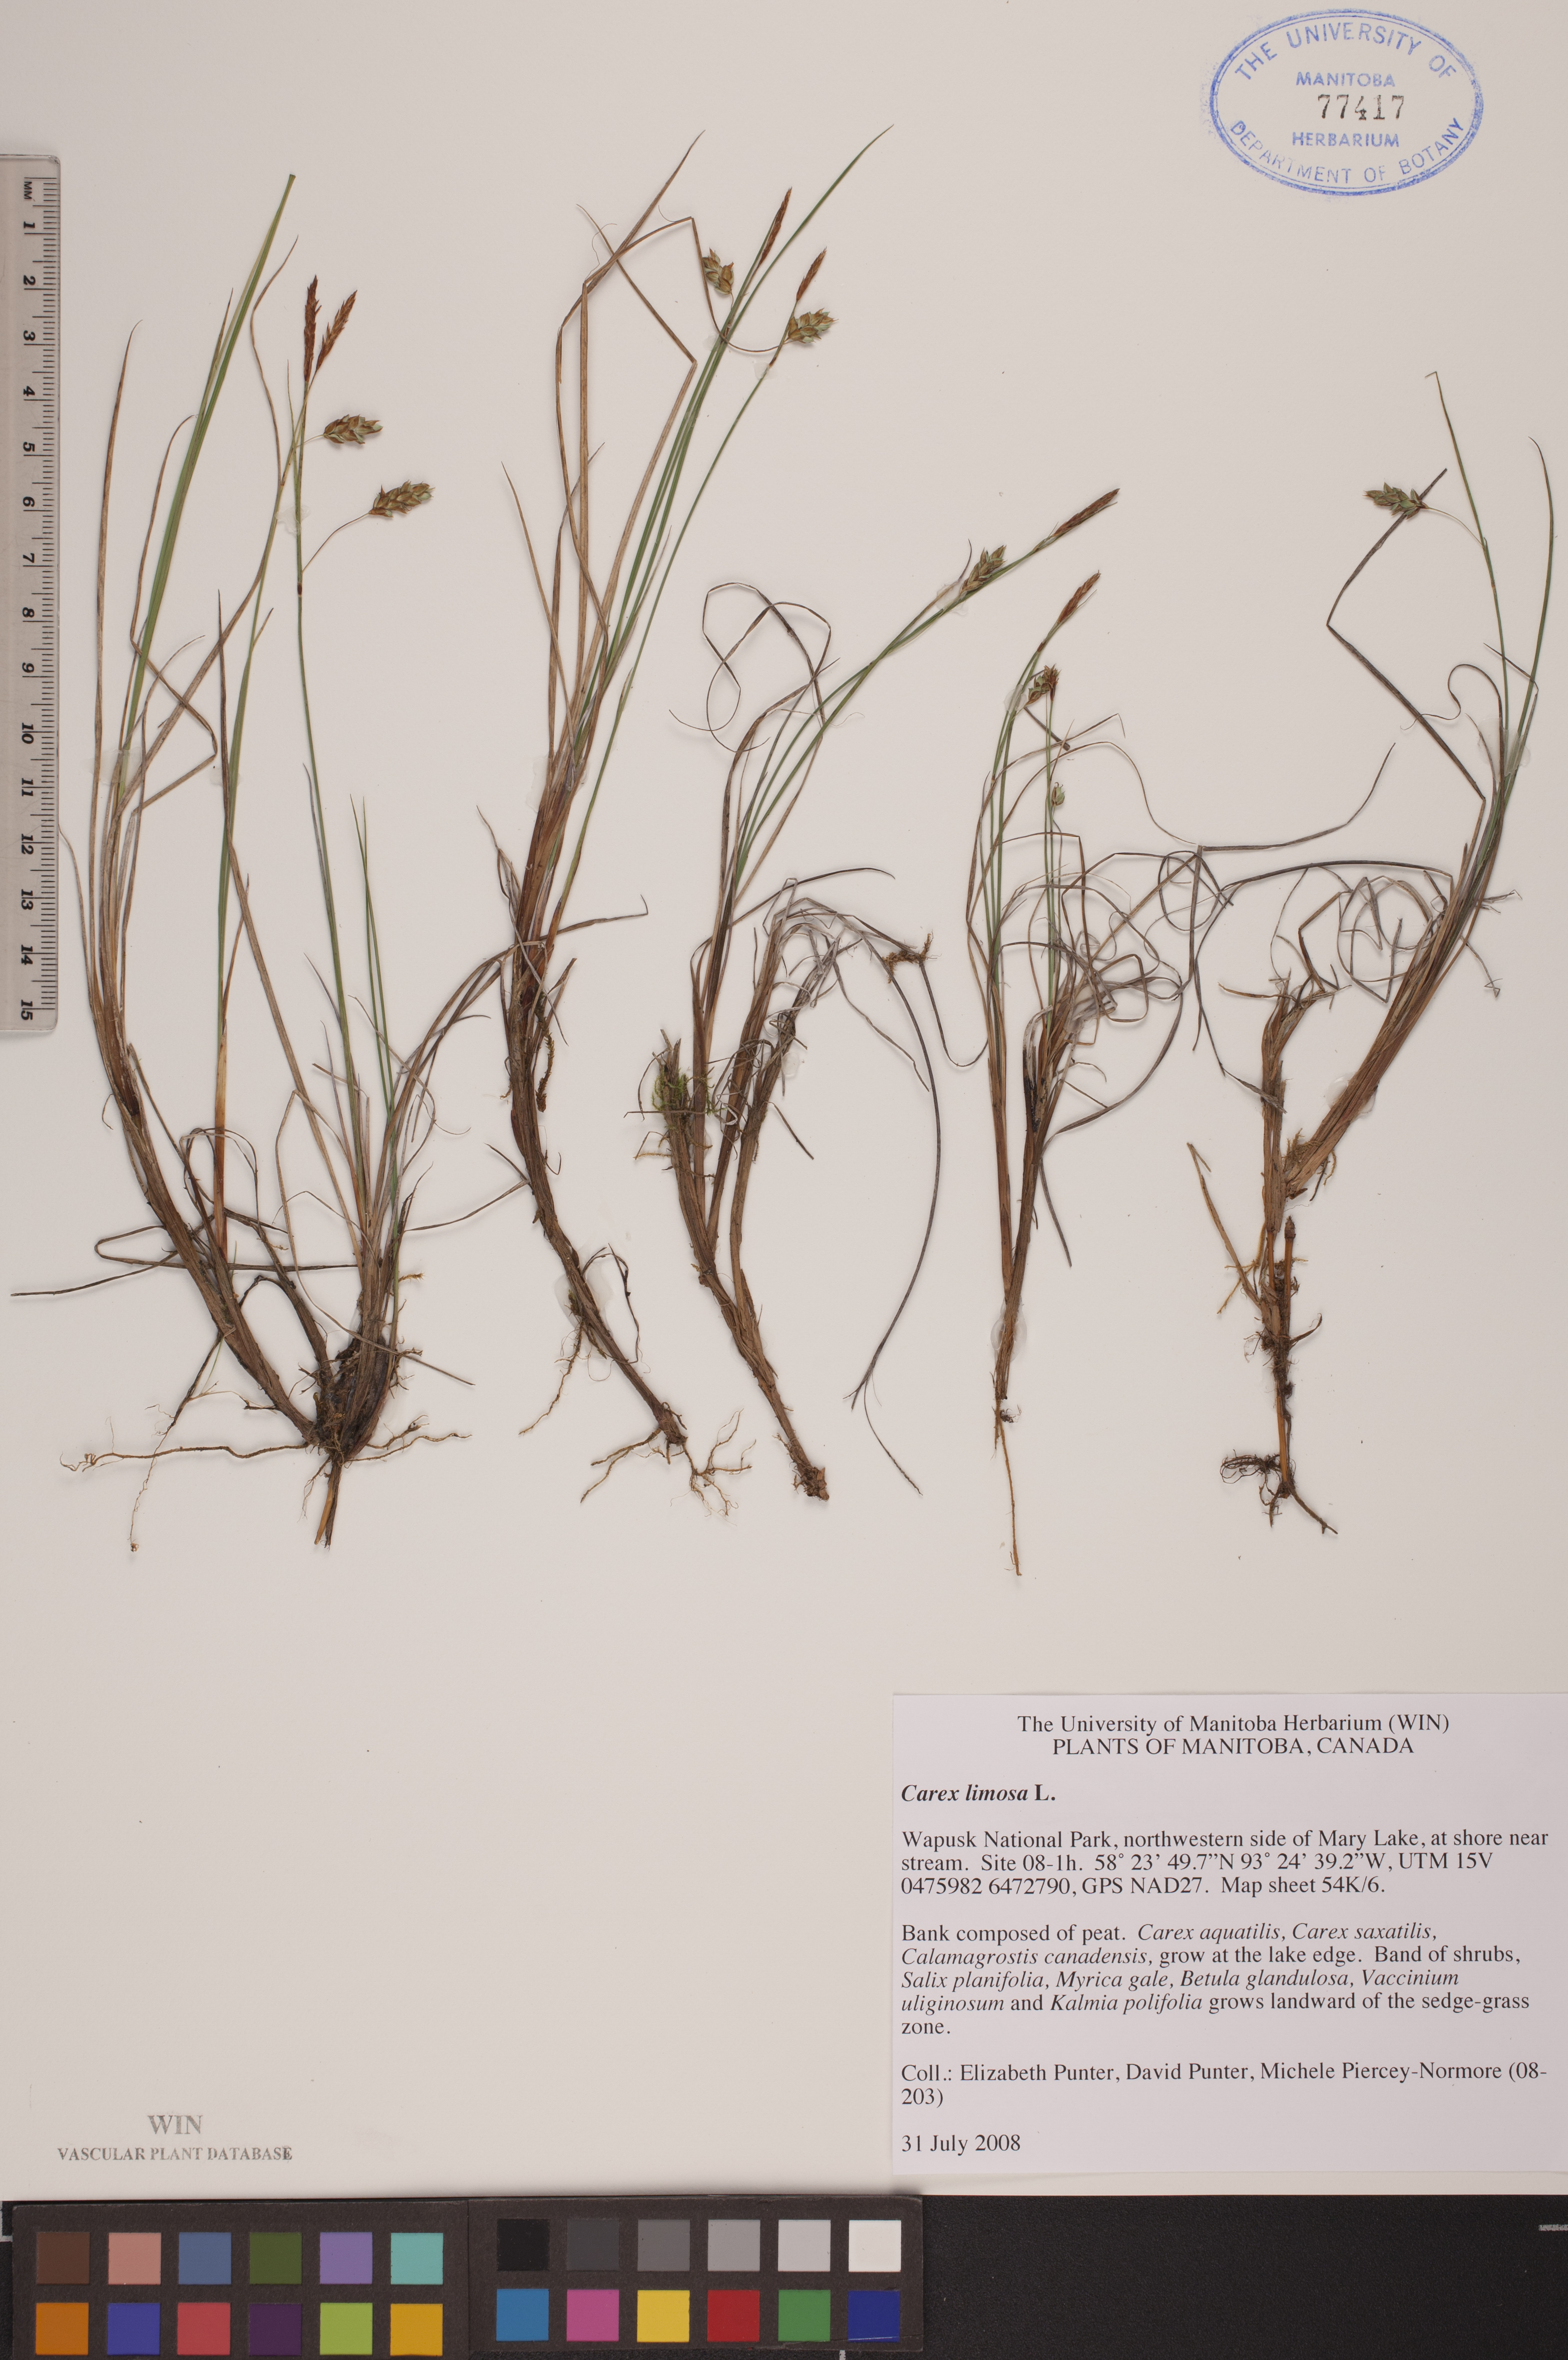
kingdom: Plantae
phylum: Tracheophyta
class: Liliopsida
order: Poales
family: Cyperaceae
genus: Carex
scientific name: Carex limosa
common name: Bog sedge
